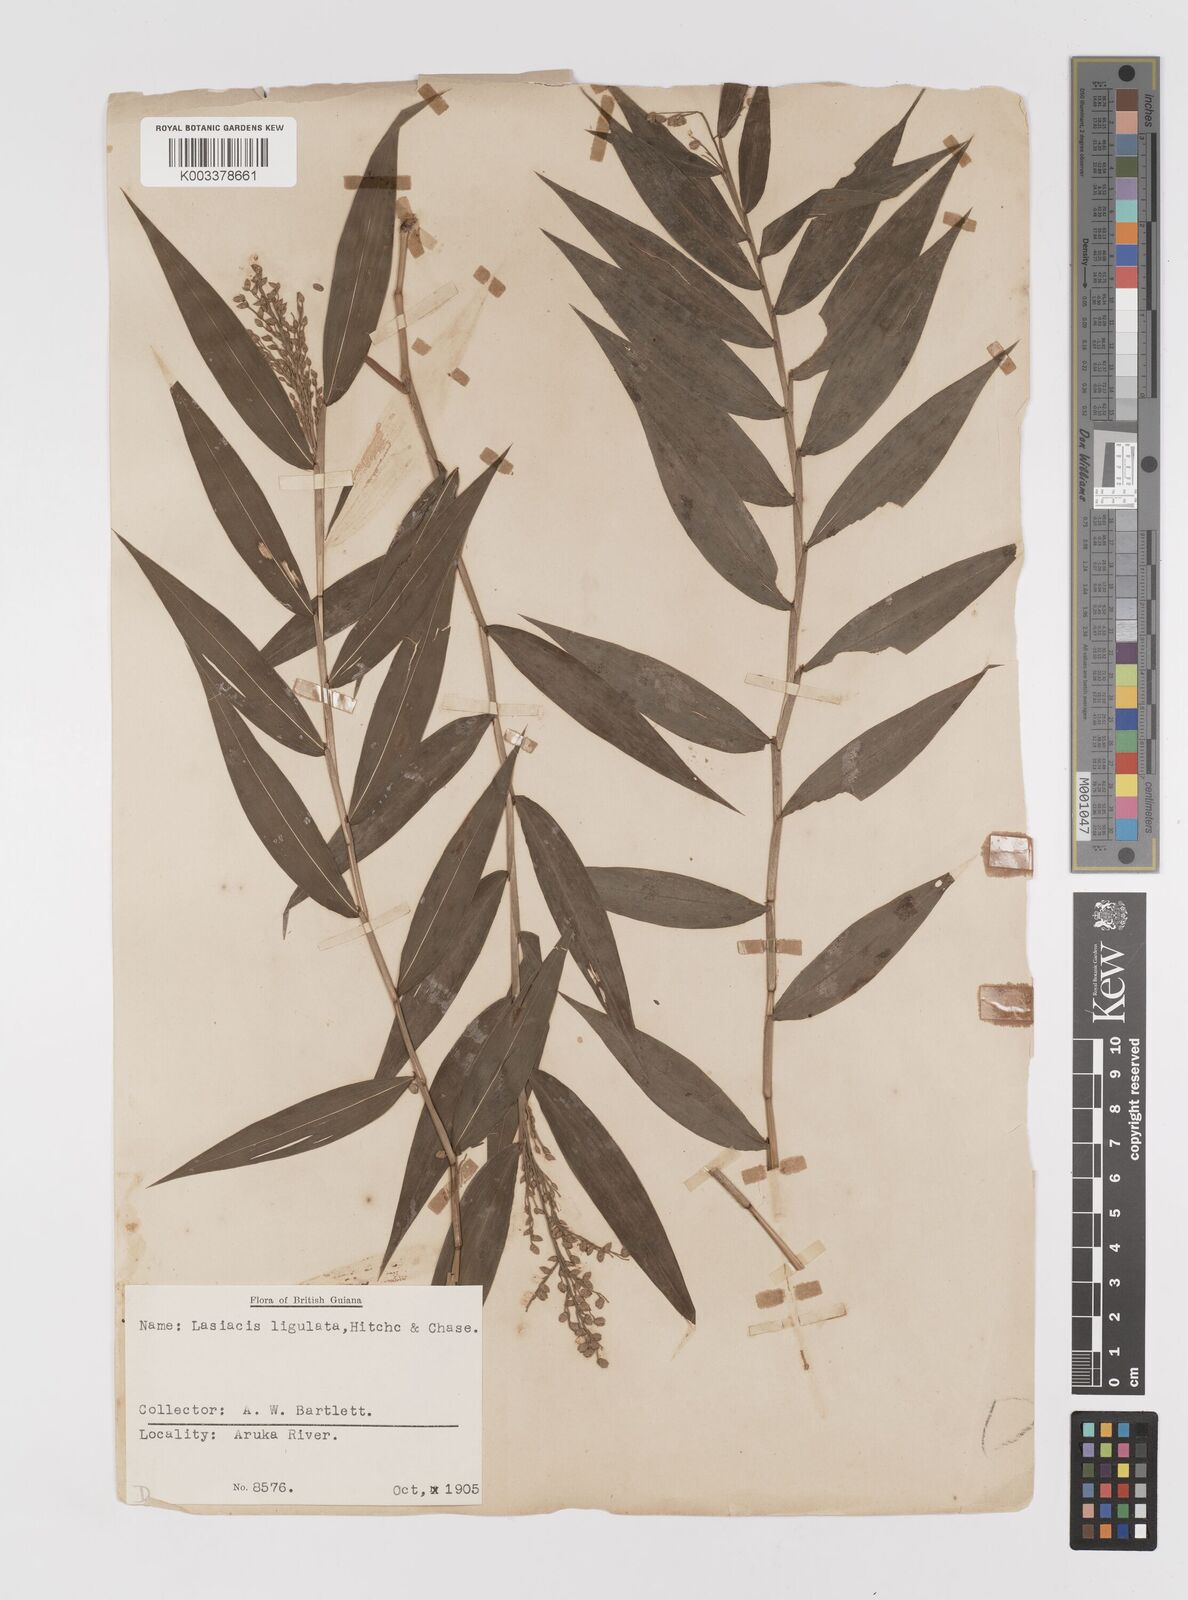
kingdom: Plantae
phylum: Tracheophyta
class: Liliopsida
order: Poales
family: Poaceae
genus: Lasiacis
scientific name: Lasiacis ligulata
